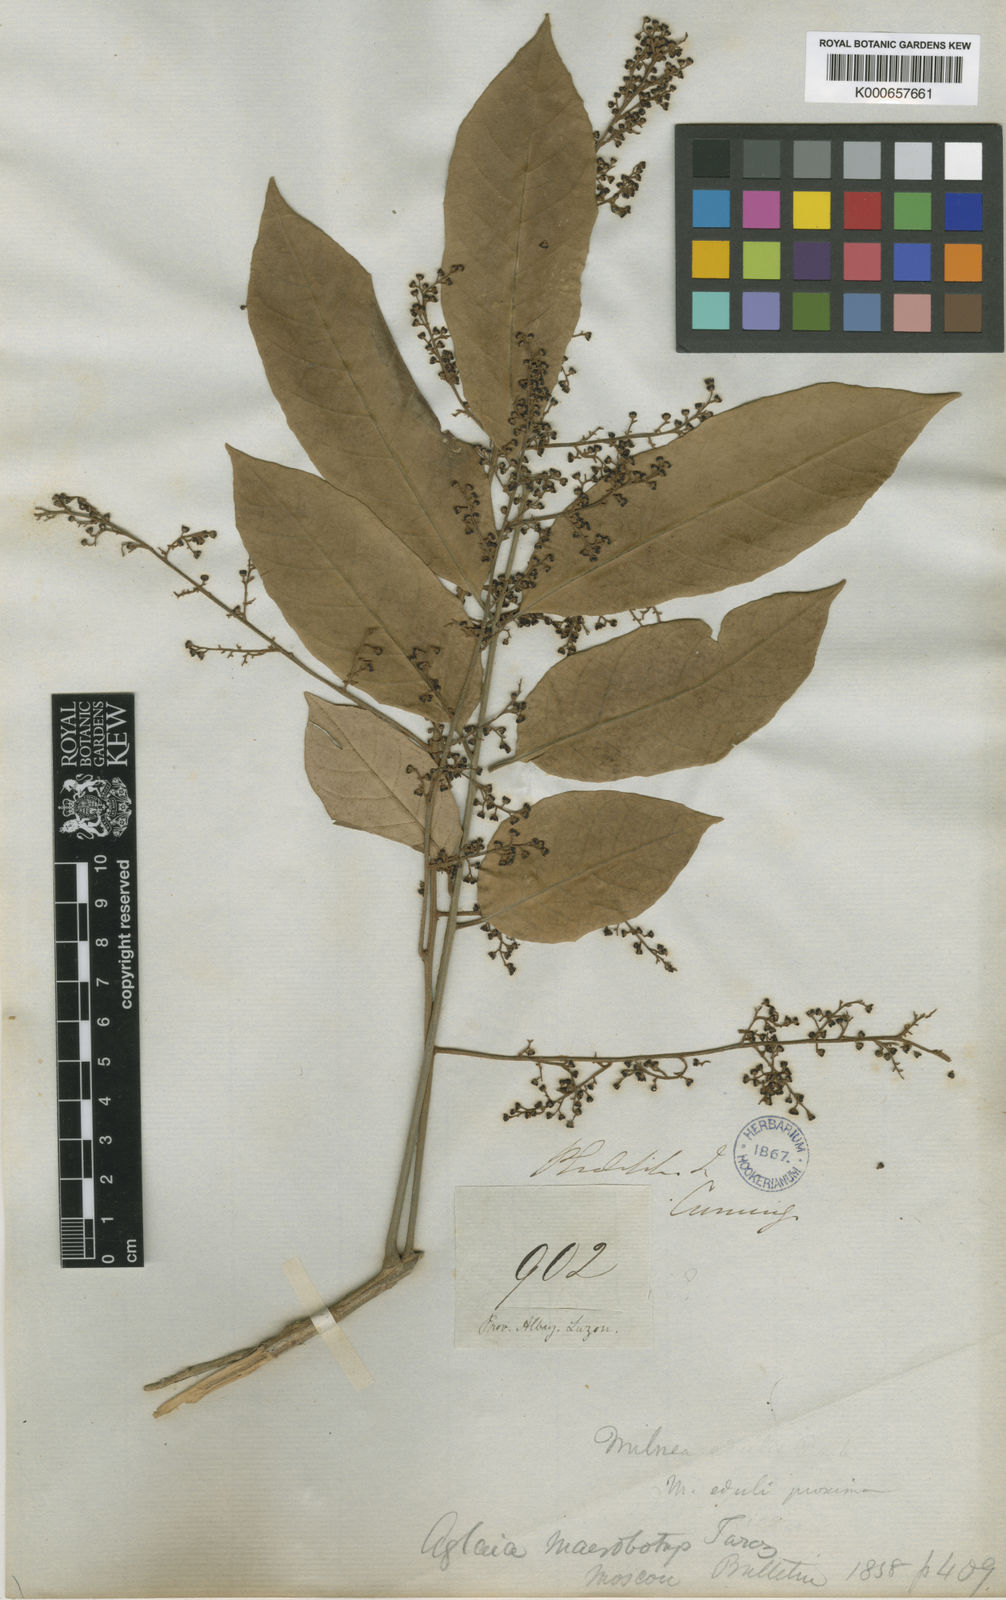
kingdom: Plantae
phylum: Tracheophyta
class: Magnoliopsida
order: Sapindales
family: Meliaceae
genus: Aglaia
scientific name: Aglaia rimosa
